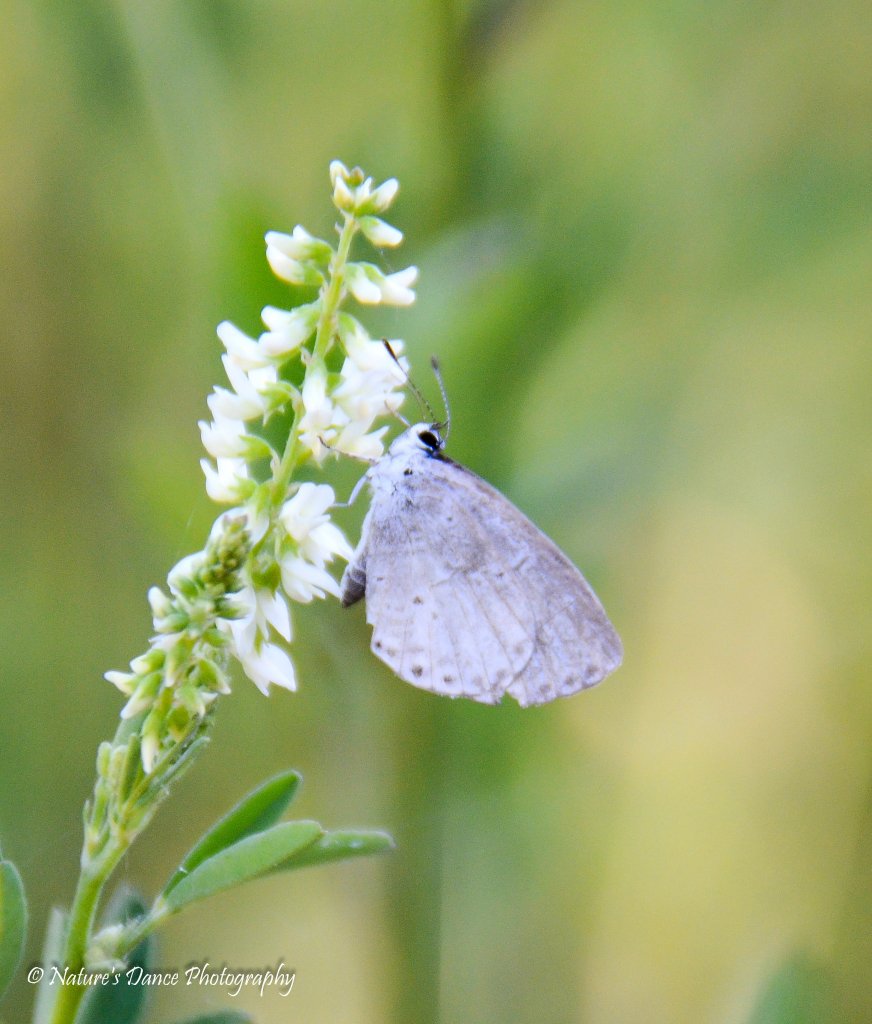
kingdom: Animalia
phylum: Arthropoda
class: Insecta
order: Lepidoptera
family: Lycaenidae
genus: Celastrina
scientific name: Celastrina
